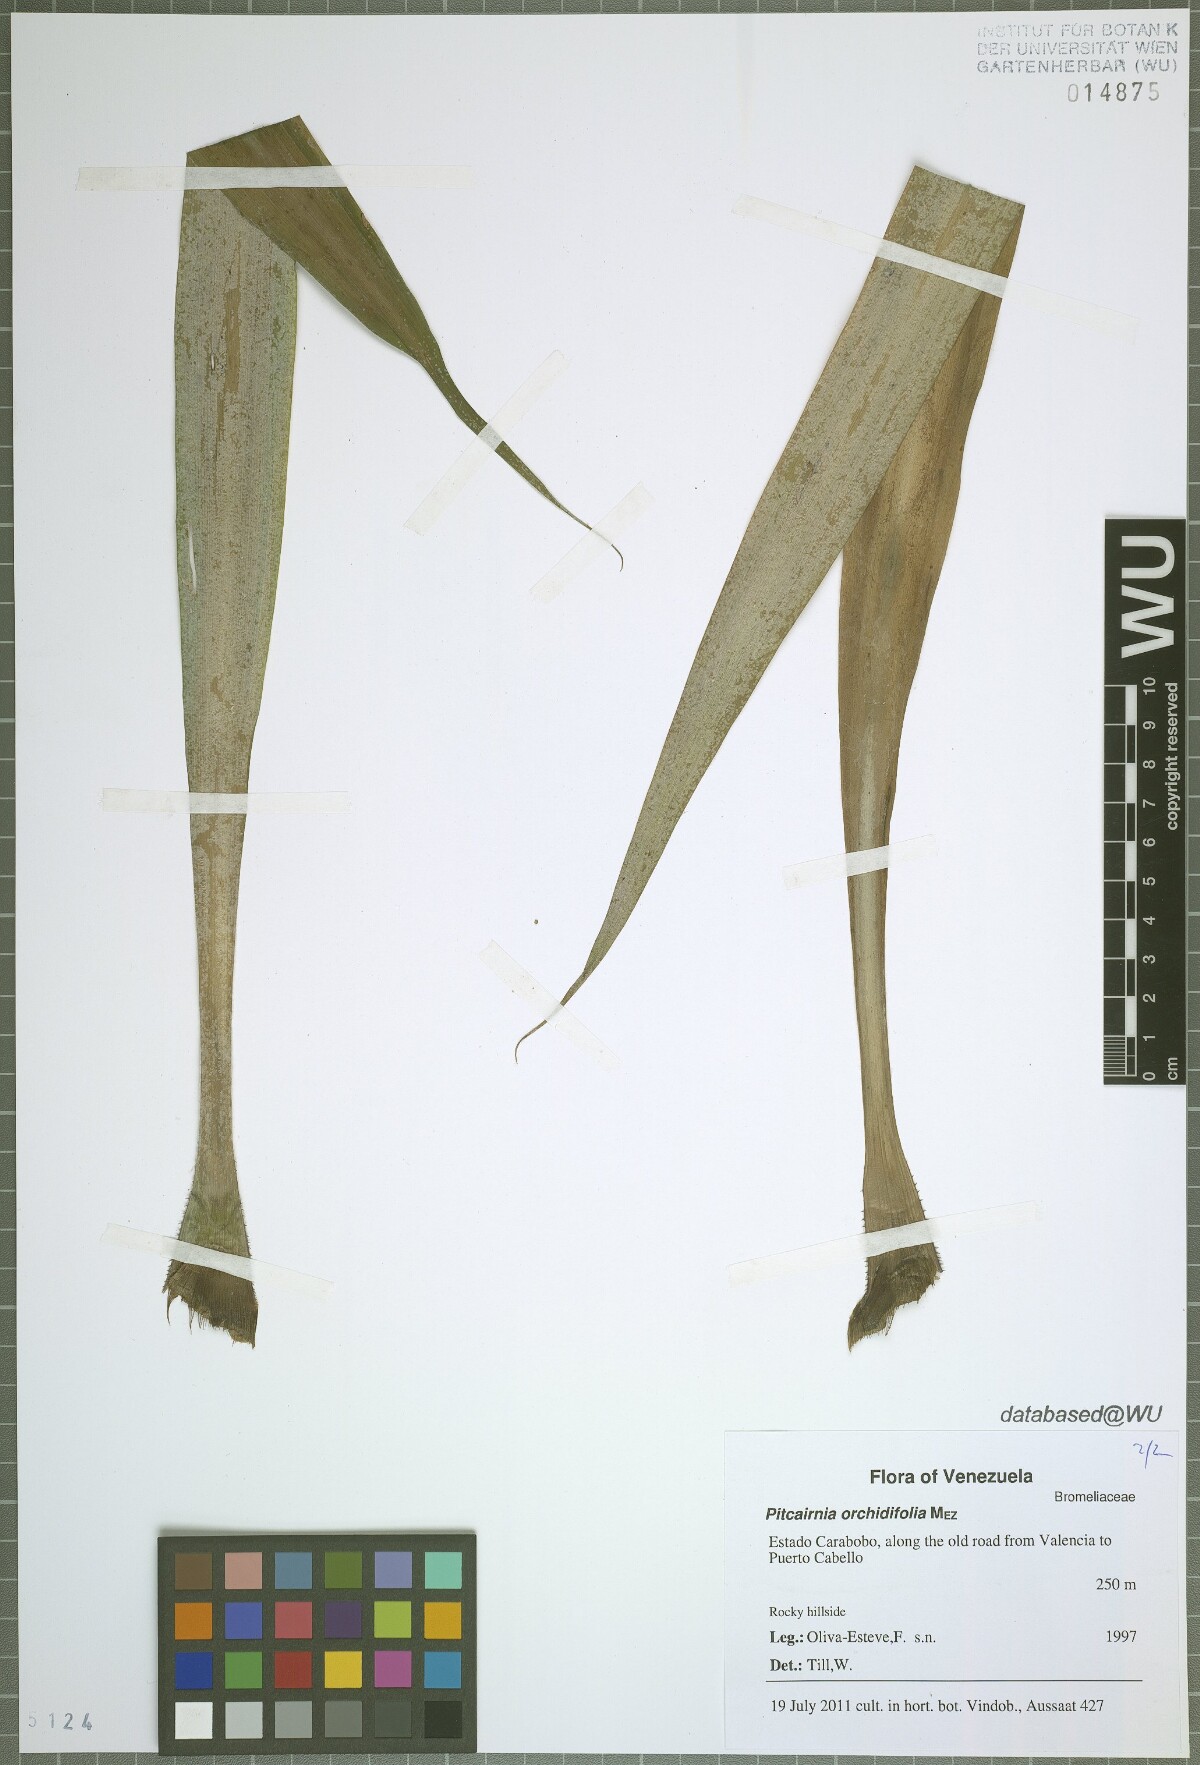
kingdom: Plantae
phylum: Tracheophyta
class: Liliopsida
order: Poales
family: Bromeliaceae
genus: Pitcairnia
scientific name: Pitcairnia orchidifolia
